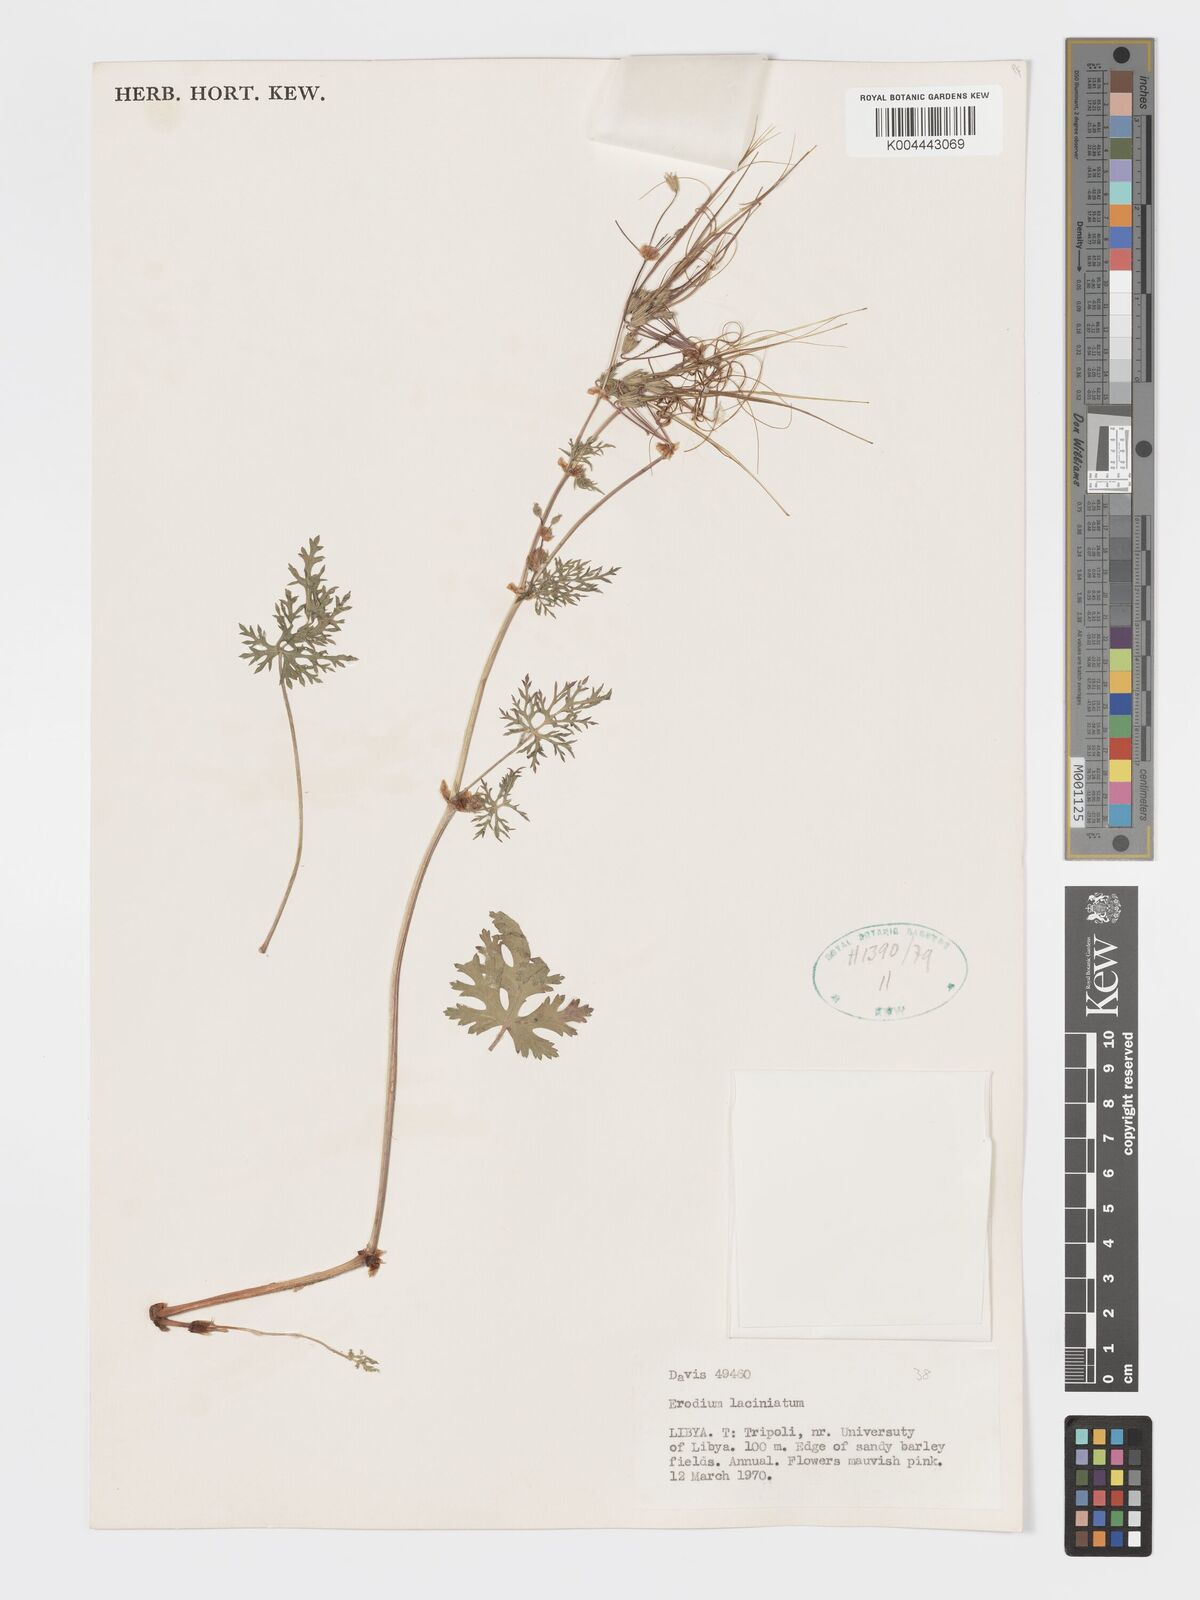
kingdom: Plantae
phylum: Tracheophyta
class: Magnoliopsida
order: Geraniales
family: Geraniaceae
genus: Erodium
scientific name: Erodium laciniatum
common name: Cutleaf stork's bill
